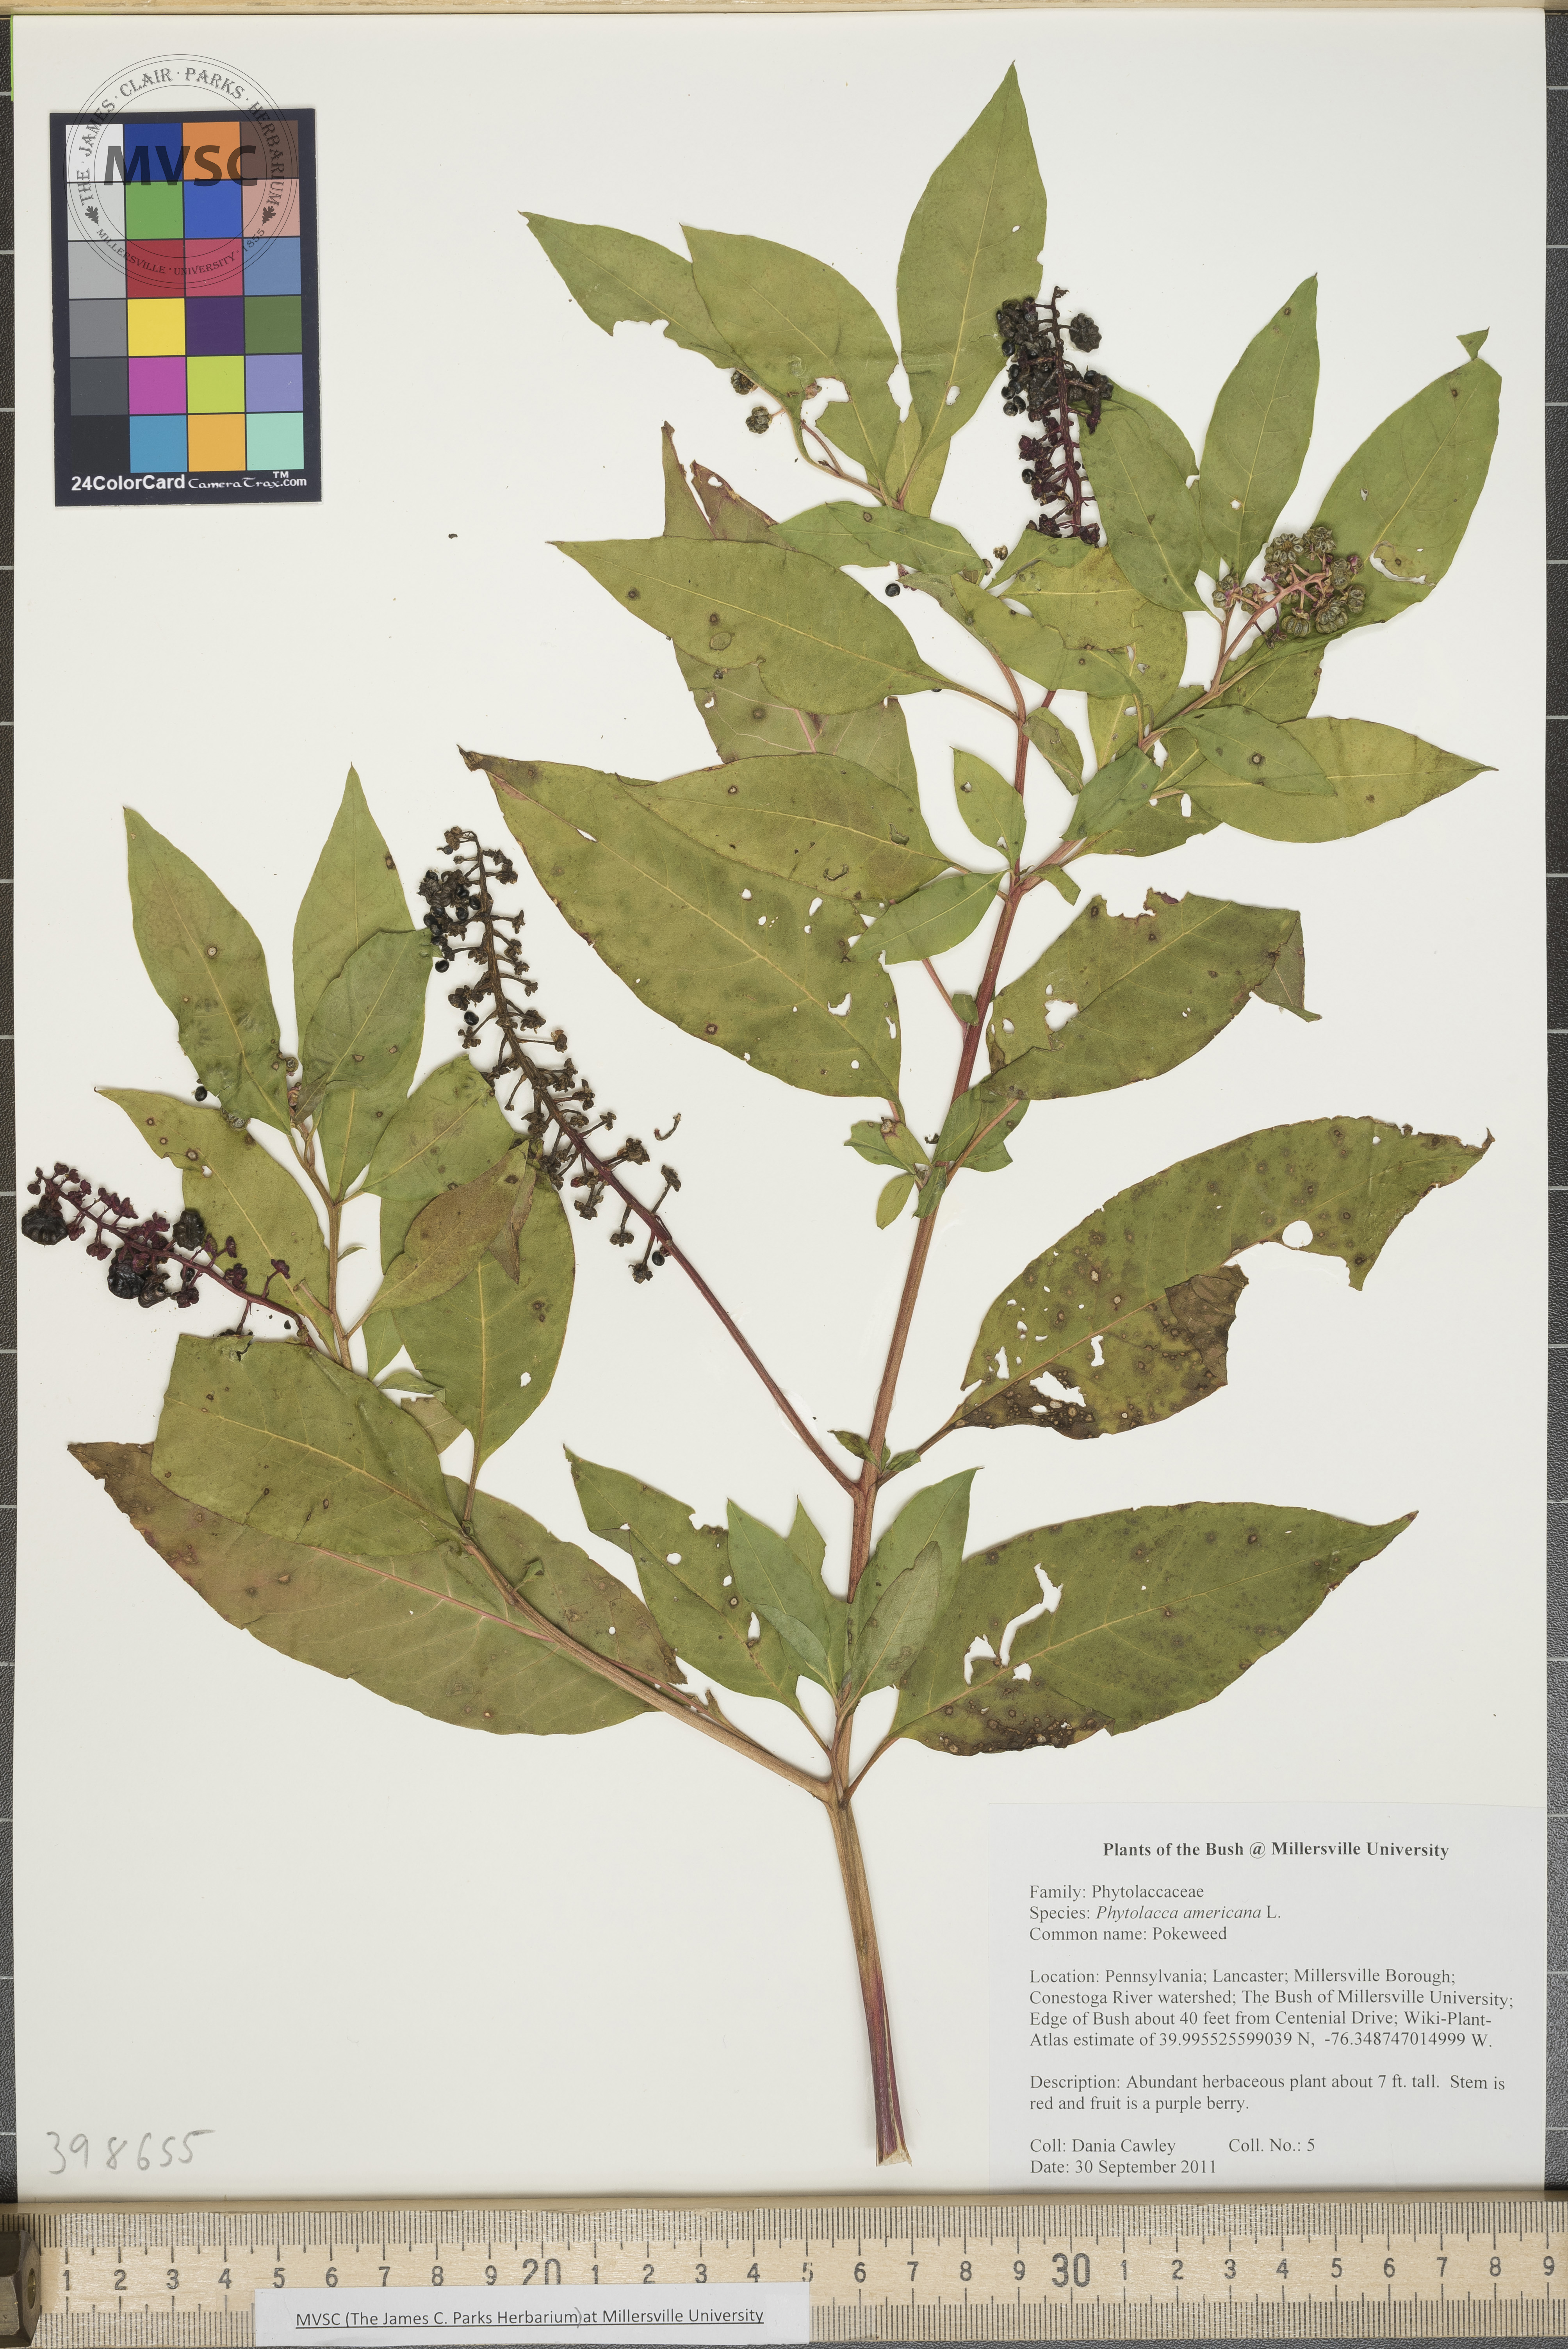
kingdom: Plantae
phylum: Tracheophyta
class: Magnoliopsida
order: Caryophyllales
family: Phytolaccaceae
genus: Phytolacca
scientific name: Phytolacca americana
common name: Pokeweed
